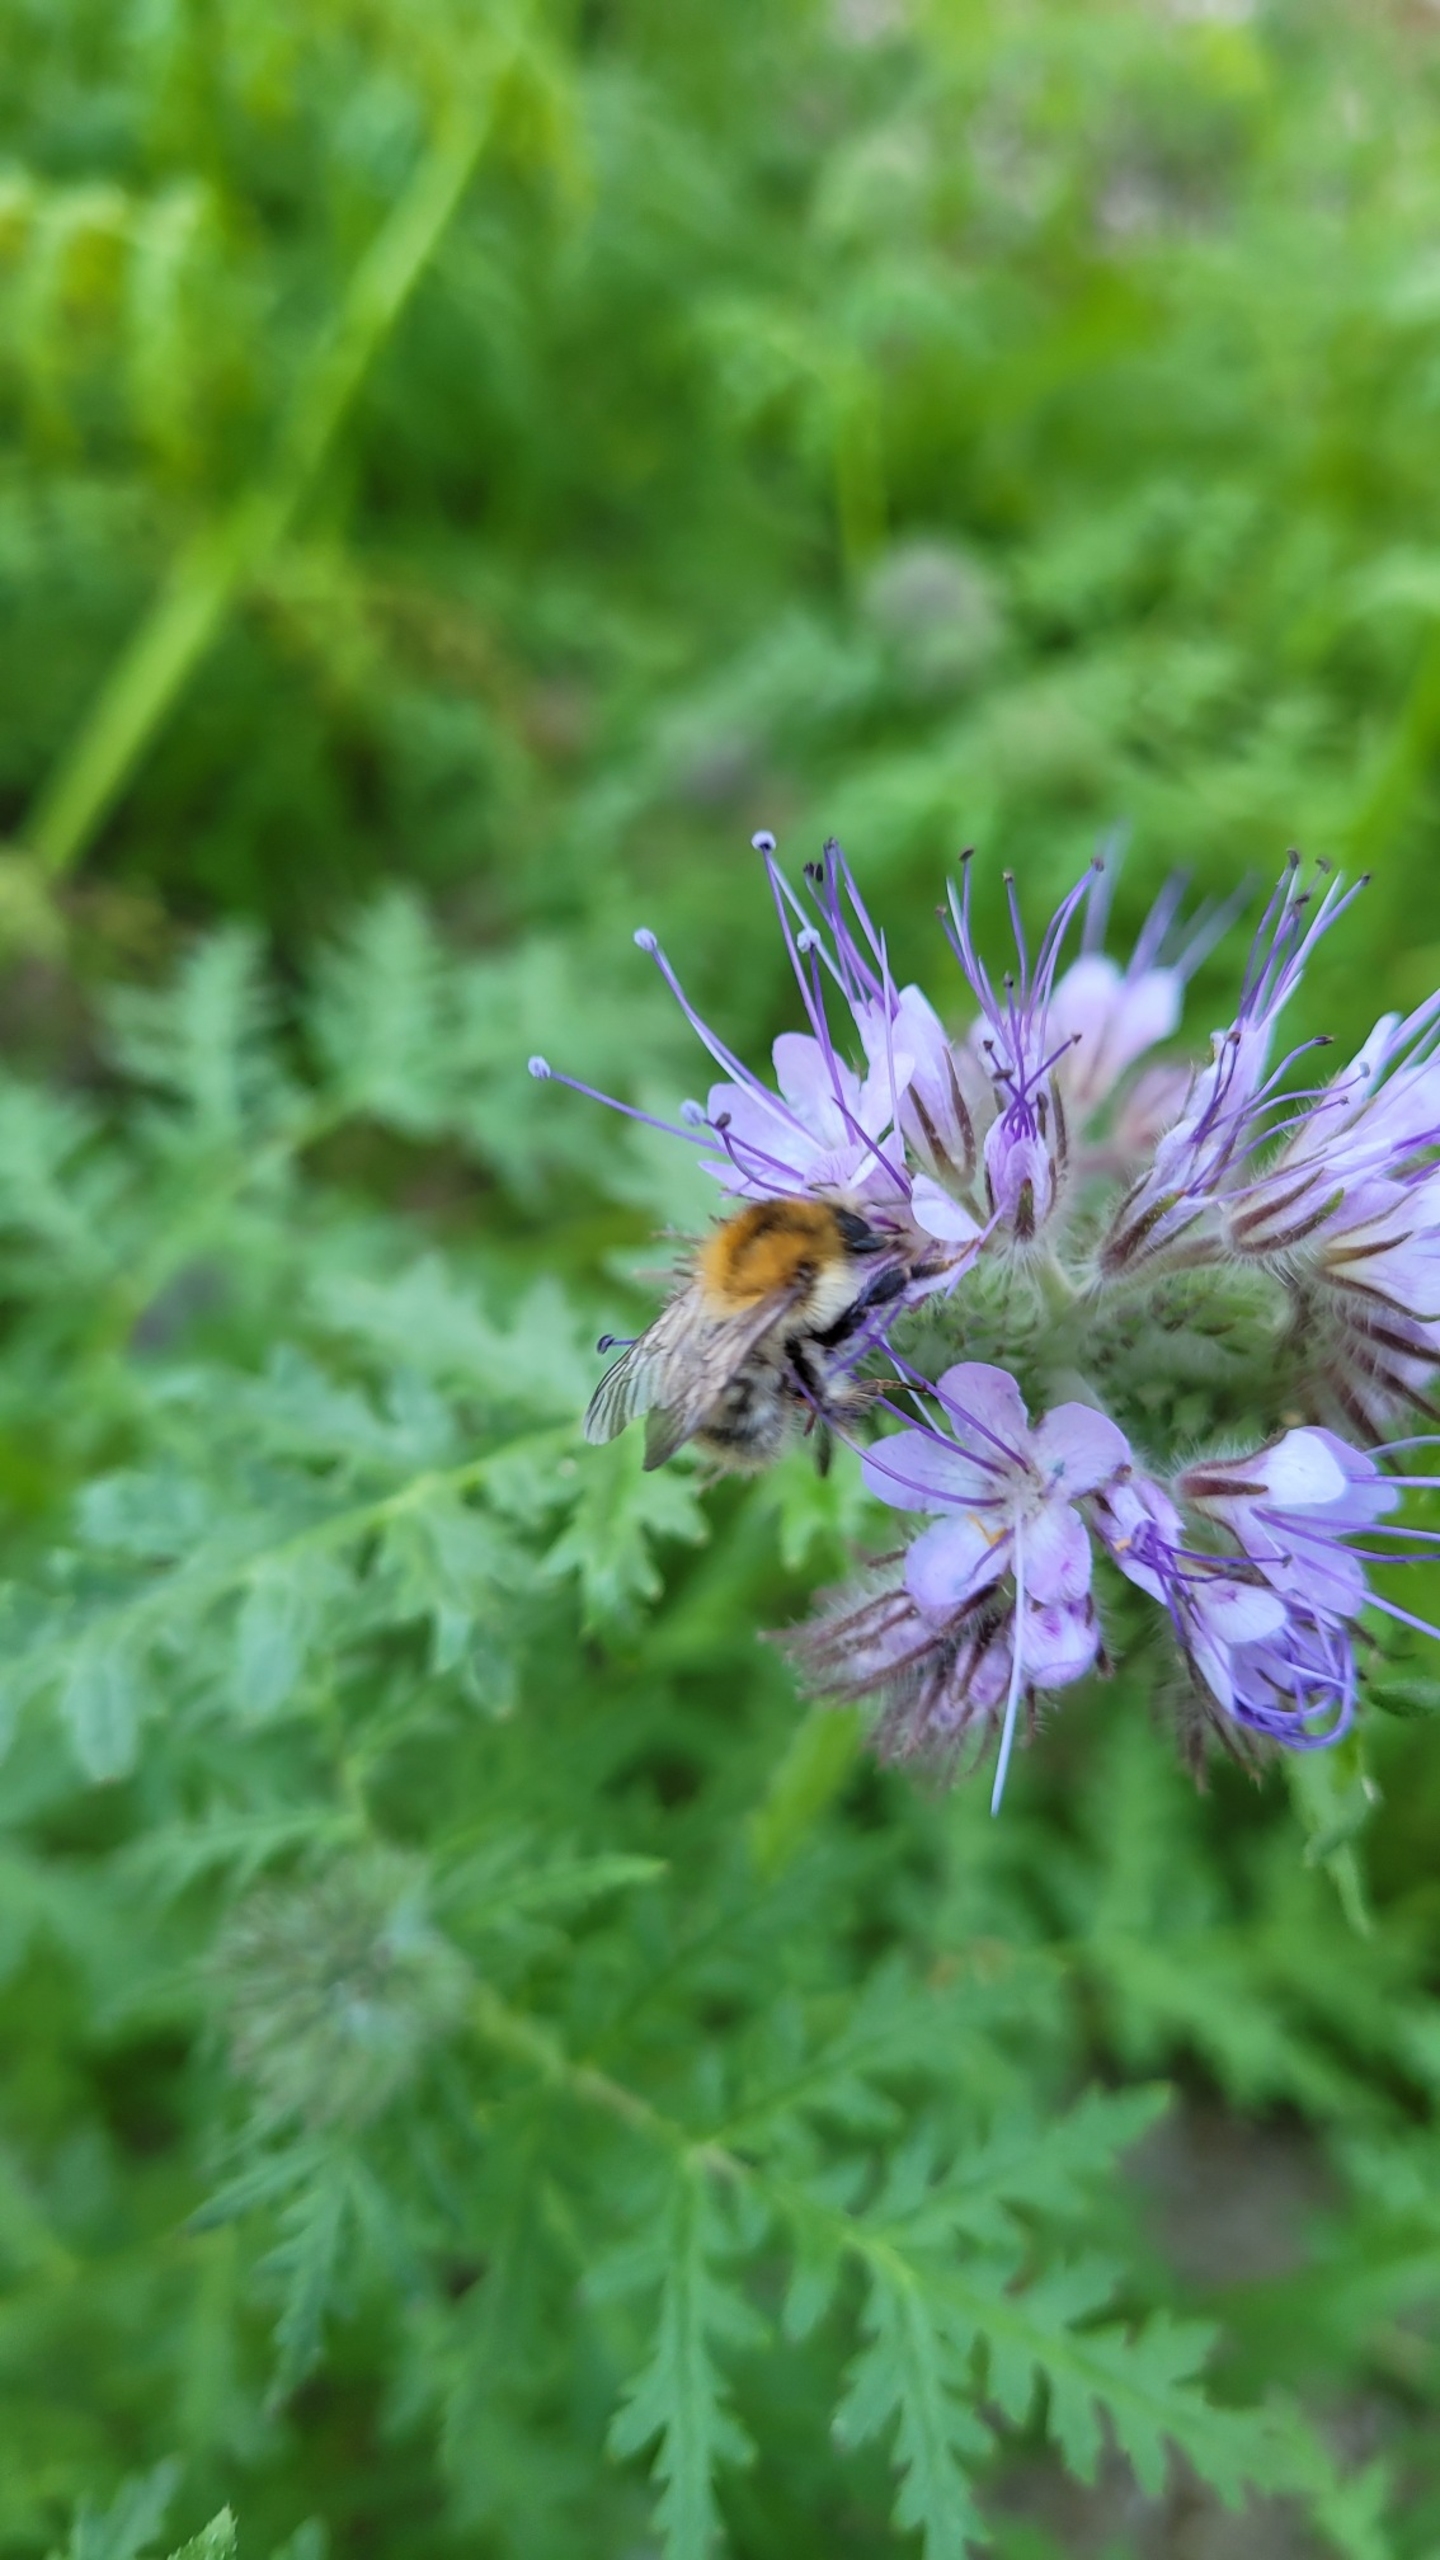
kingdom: Animalia
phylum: Arthropoda
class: Insecta
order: Hymenoptera
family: Apidae
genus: Bombus
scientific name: Bombus pascuorum
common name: Agerhumle
